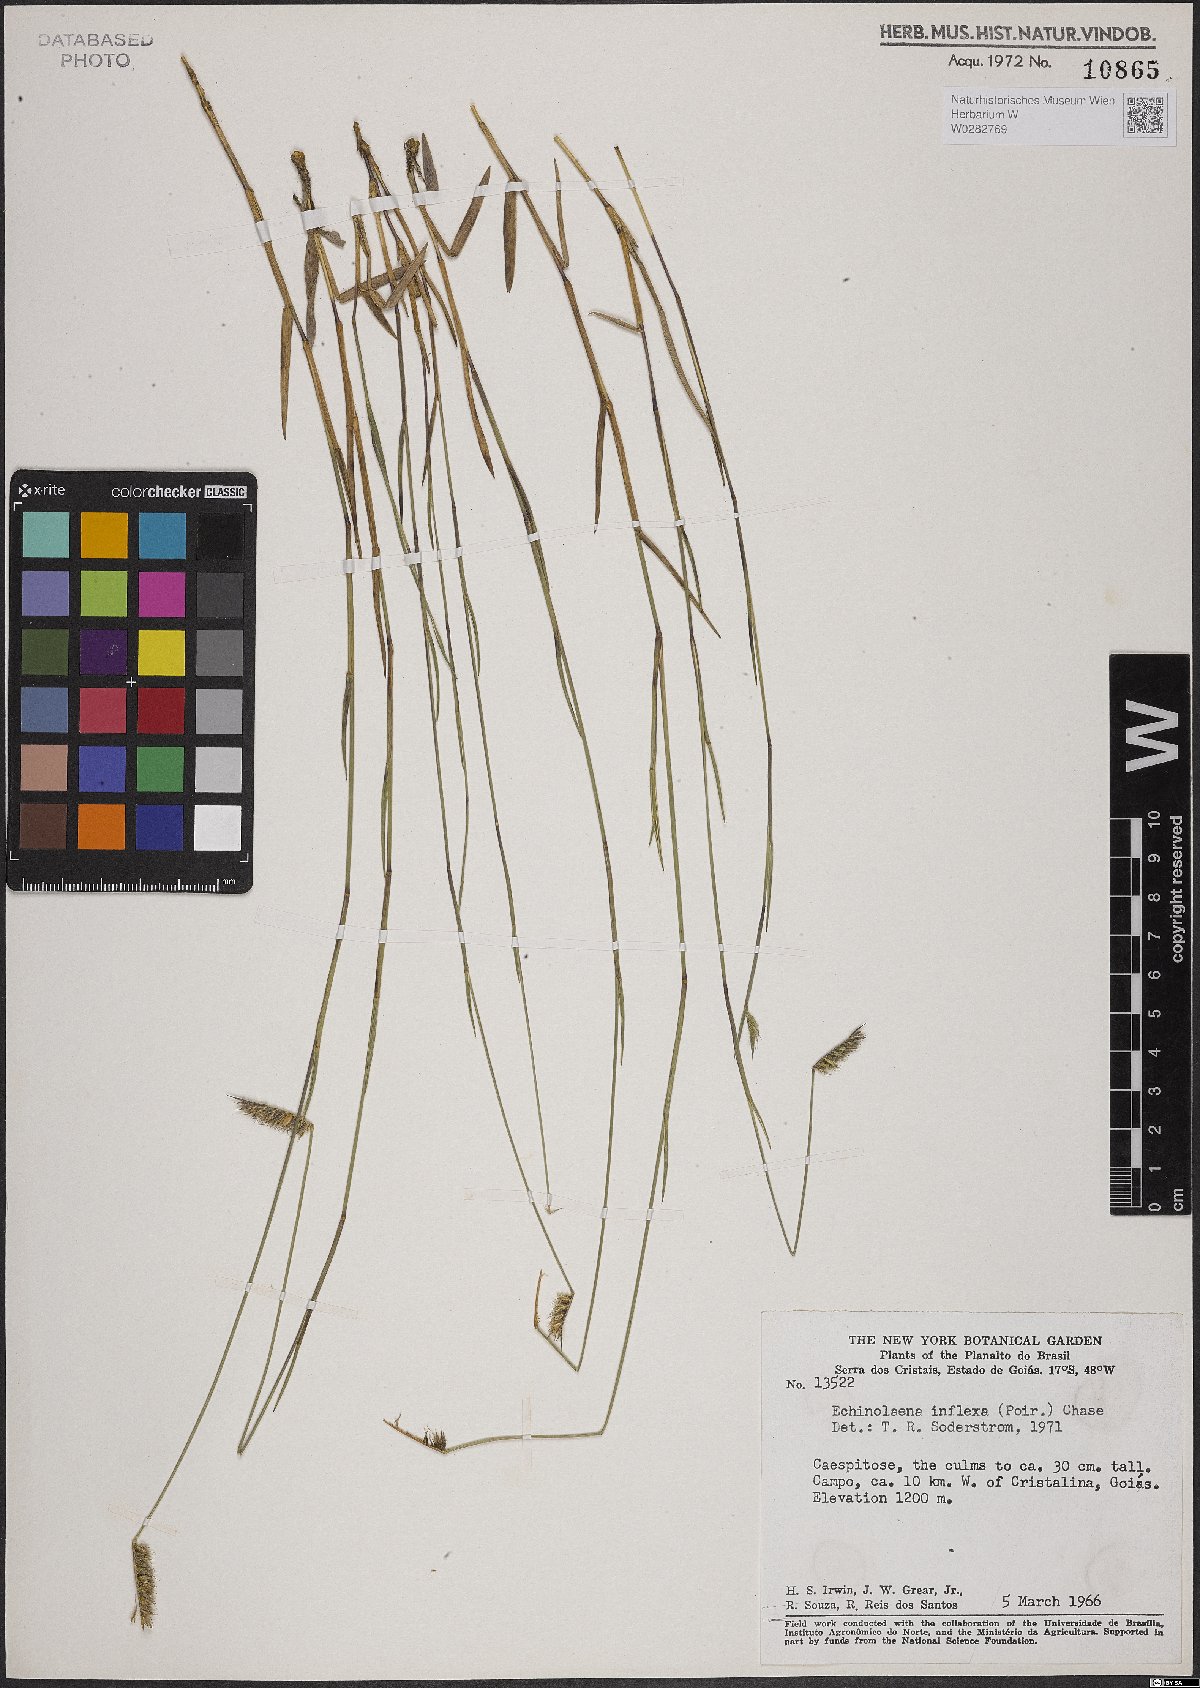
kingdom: Plantae
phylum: Tracheophyta
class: Liliopsida
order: Poales
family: Poaceae
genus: Echinolaena
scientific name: Echinolaena inflexa
